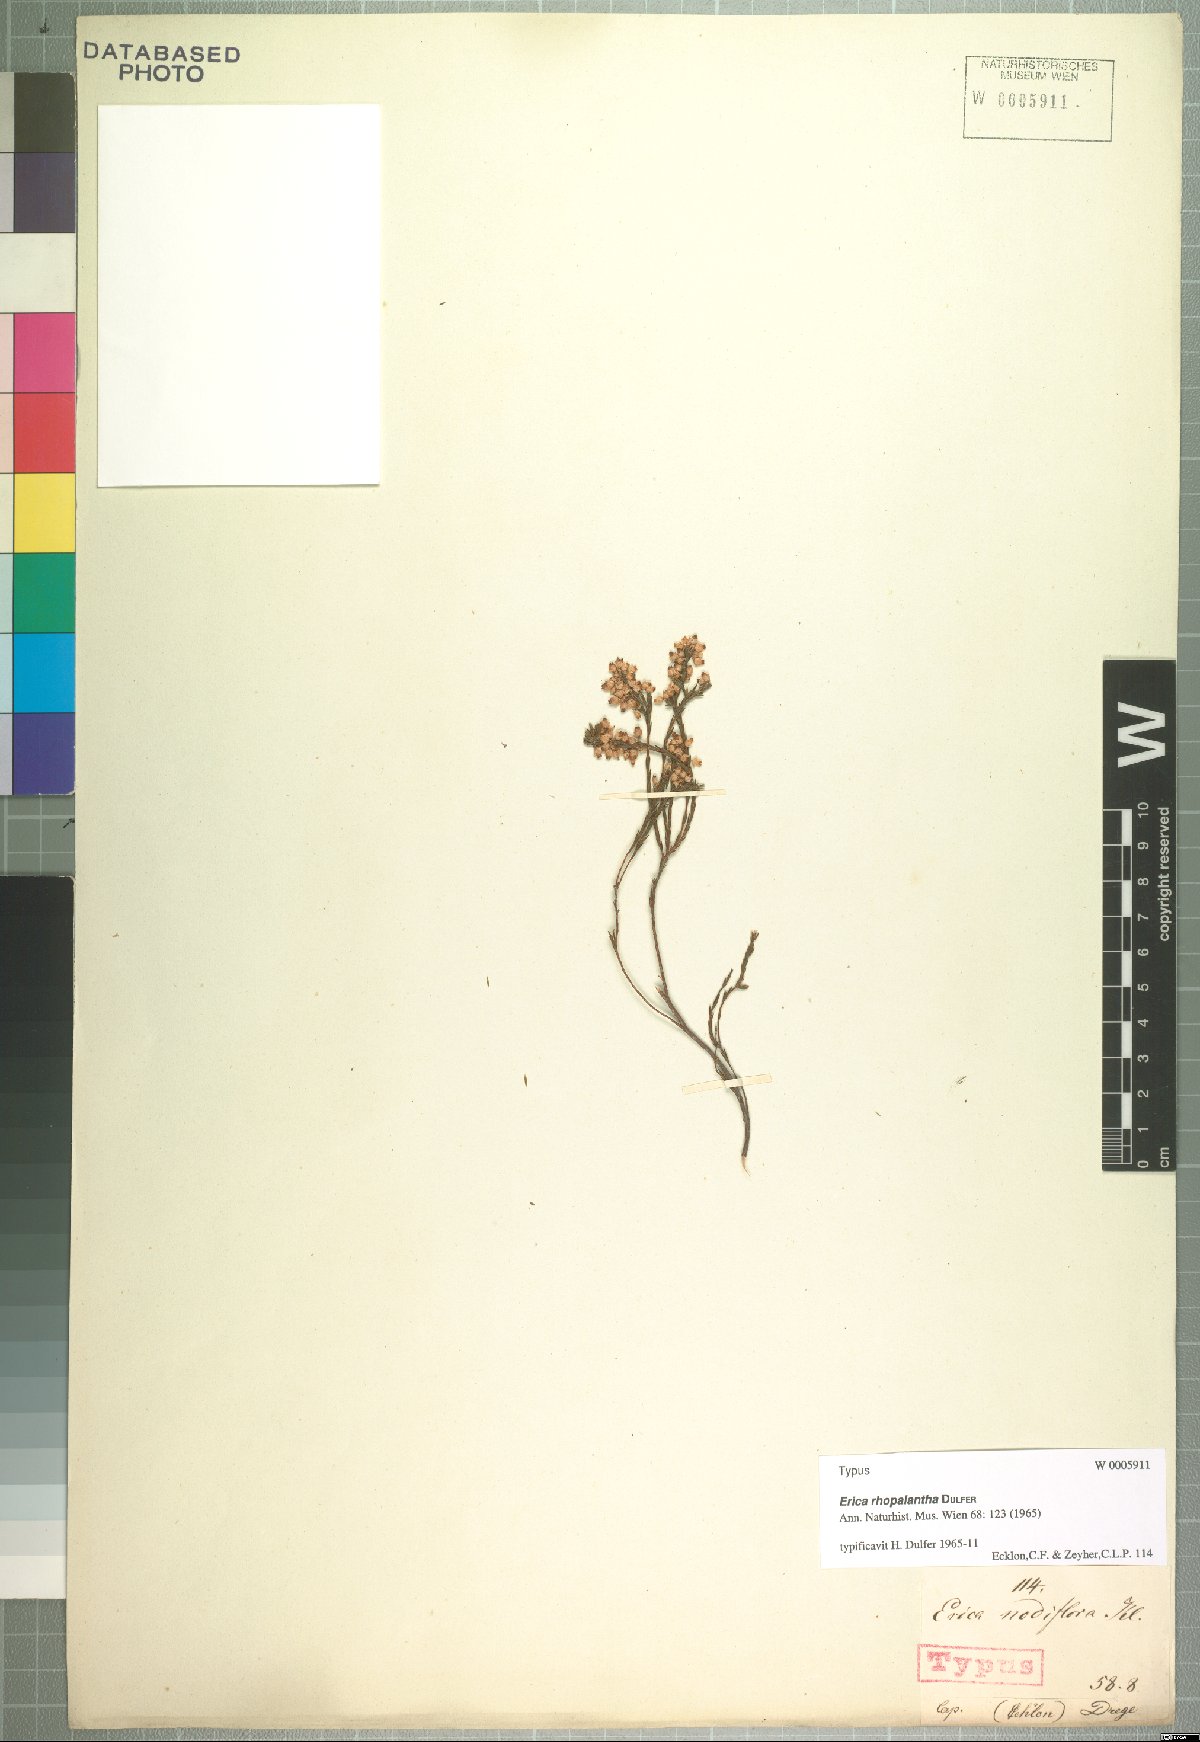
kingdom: Plantae
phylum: Tracheophyta
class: Magnoliopsida
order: Ericales
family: Ericaceae
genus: Erica
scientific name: Erica rhopalantha
